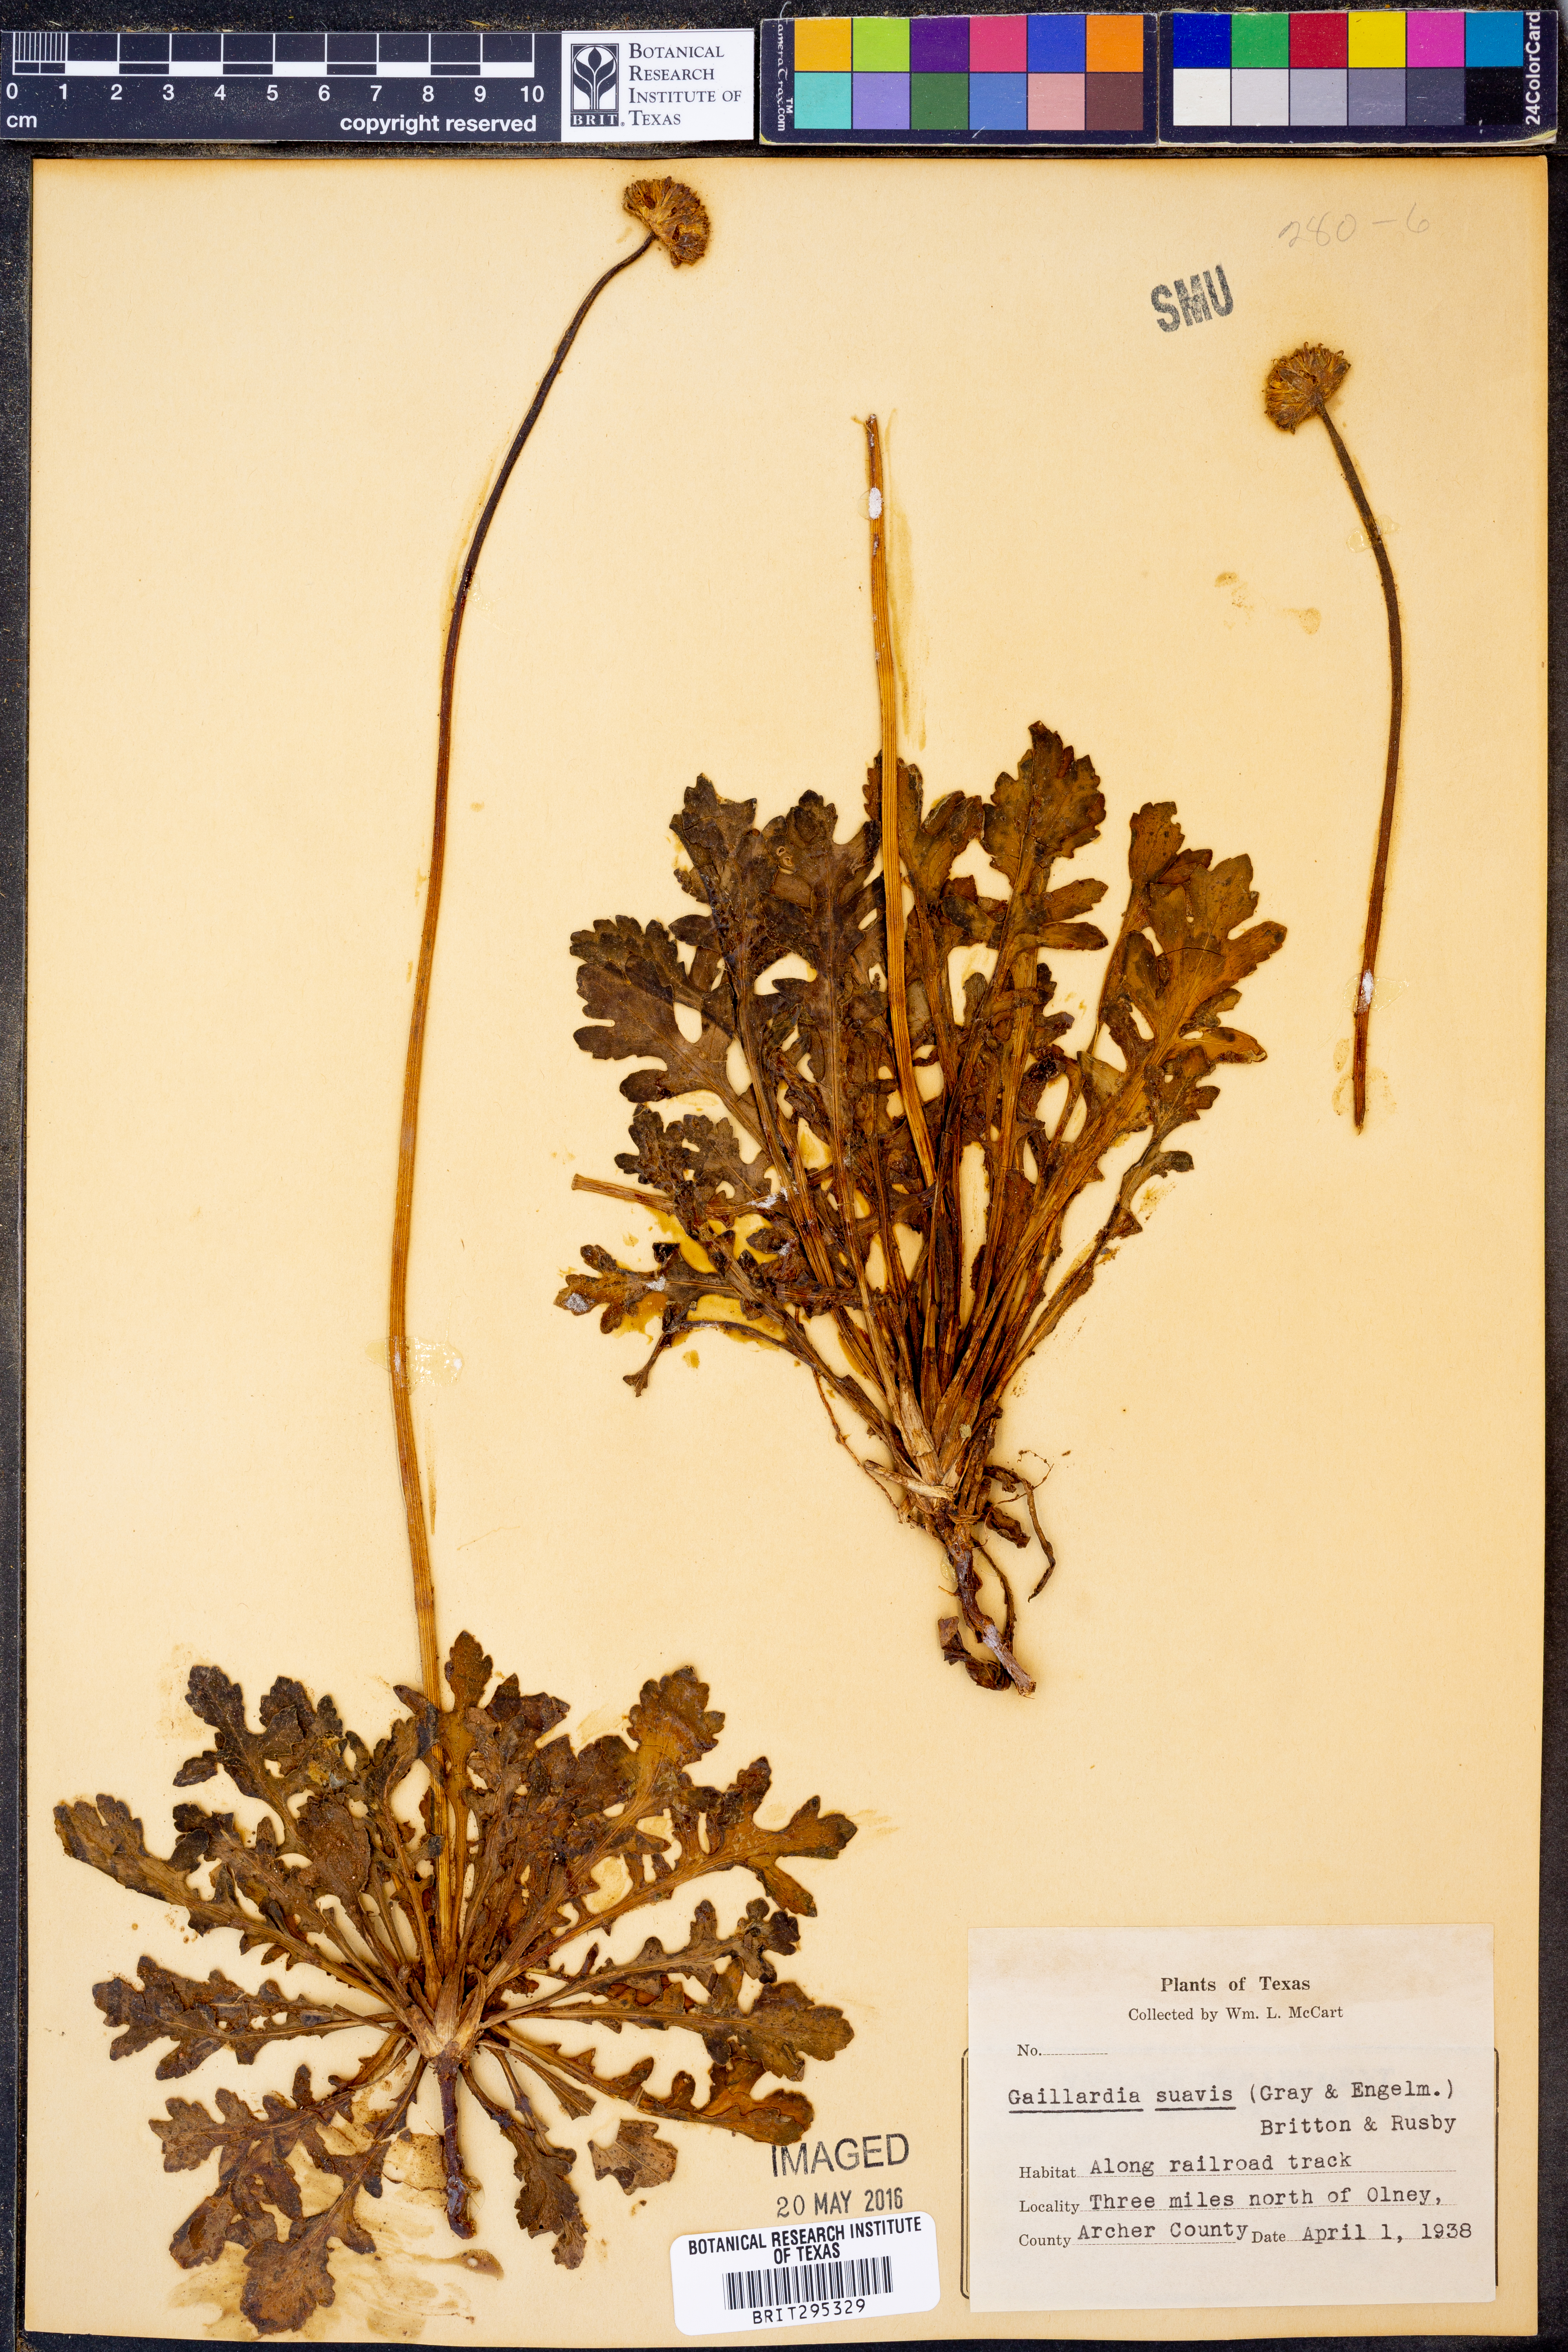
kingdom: Plantae
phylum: Tracheophyta
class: Magnoliopsida
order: Asterales
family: Asteraceae
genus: Gaillardia
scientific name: Gaillardia suavis
